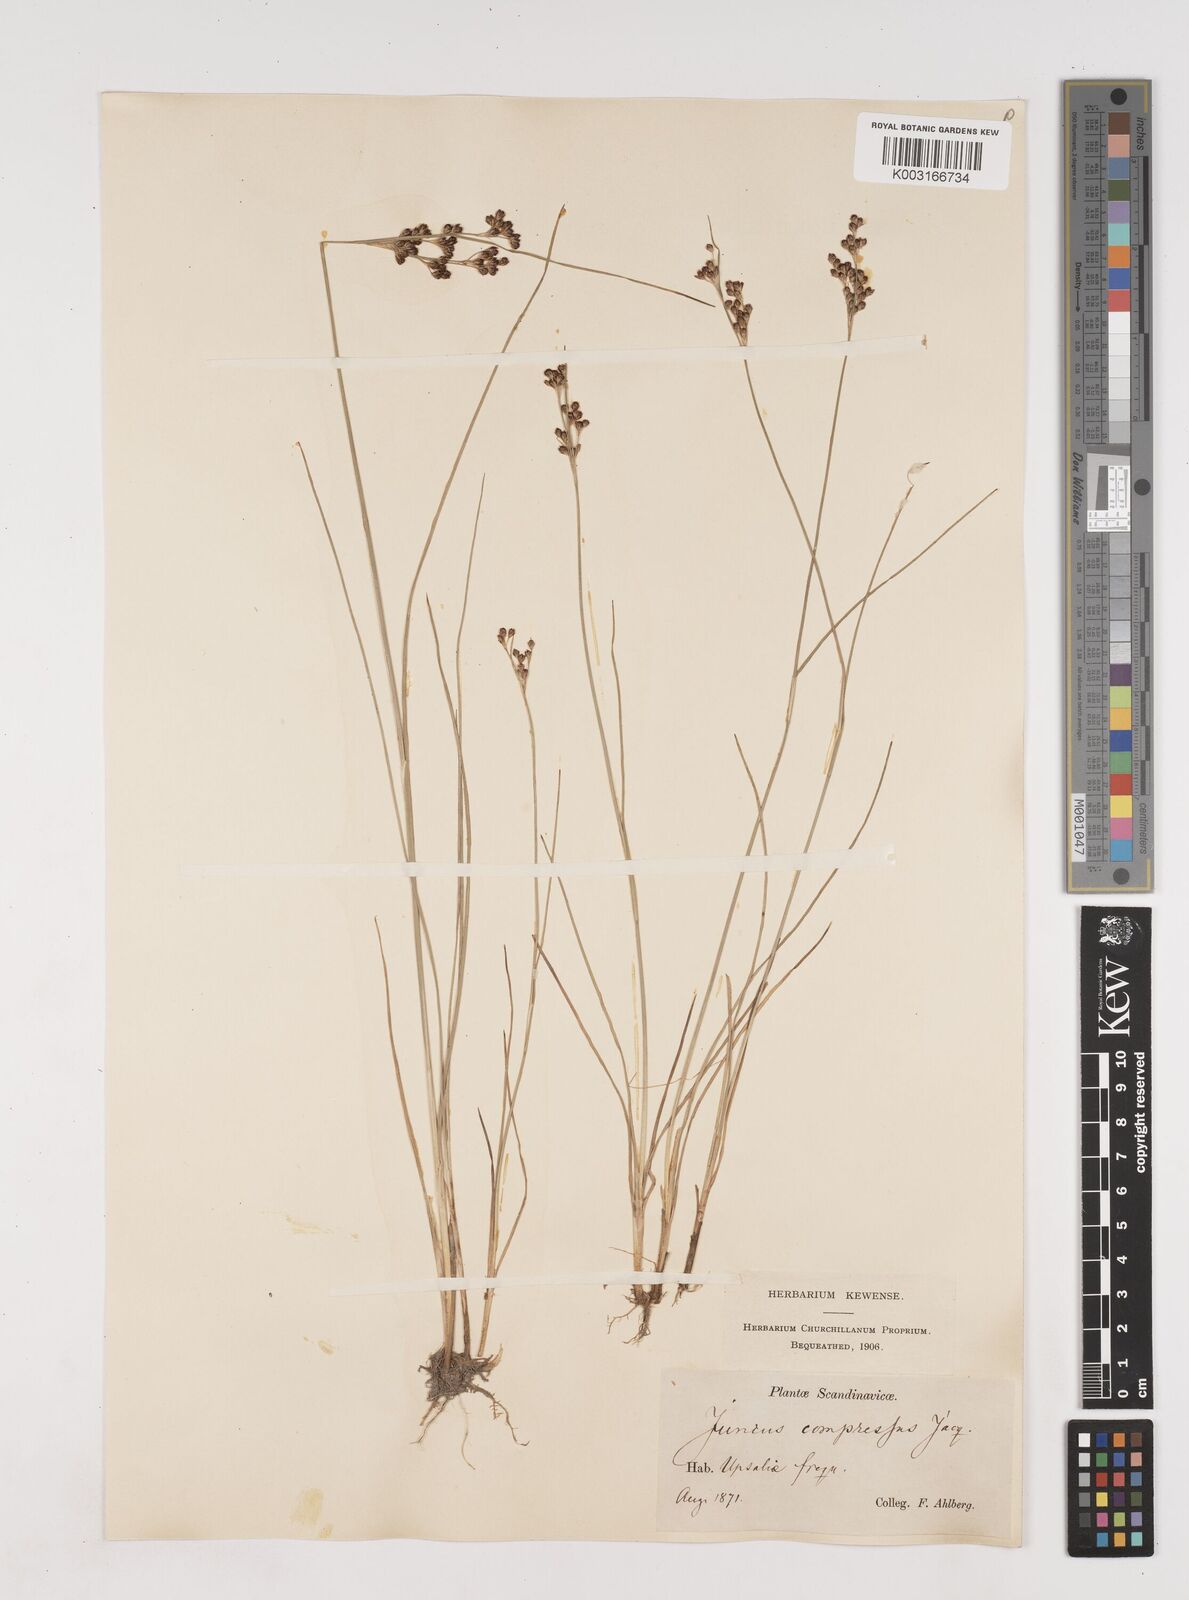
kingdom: Plantae
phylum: Tracheophyta
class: Liliopsida
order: Poales
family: Juncaceae
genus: Juncus
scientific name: Juncus
